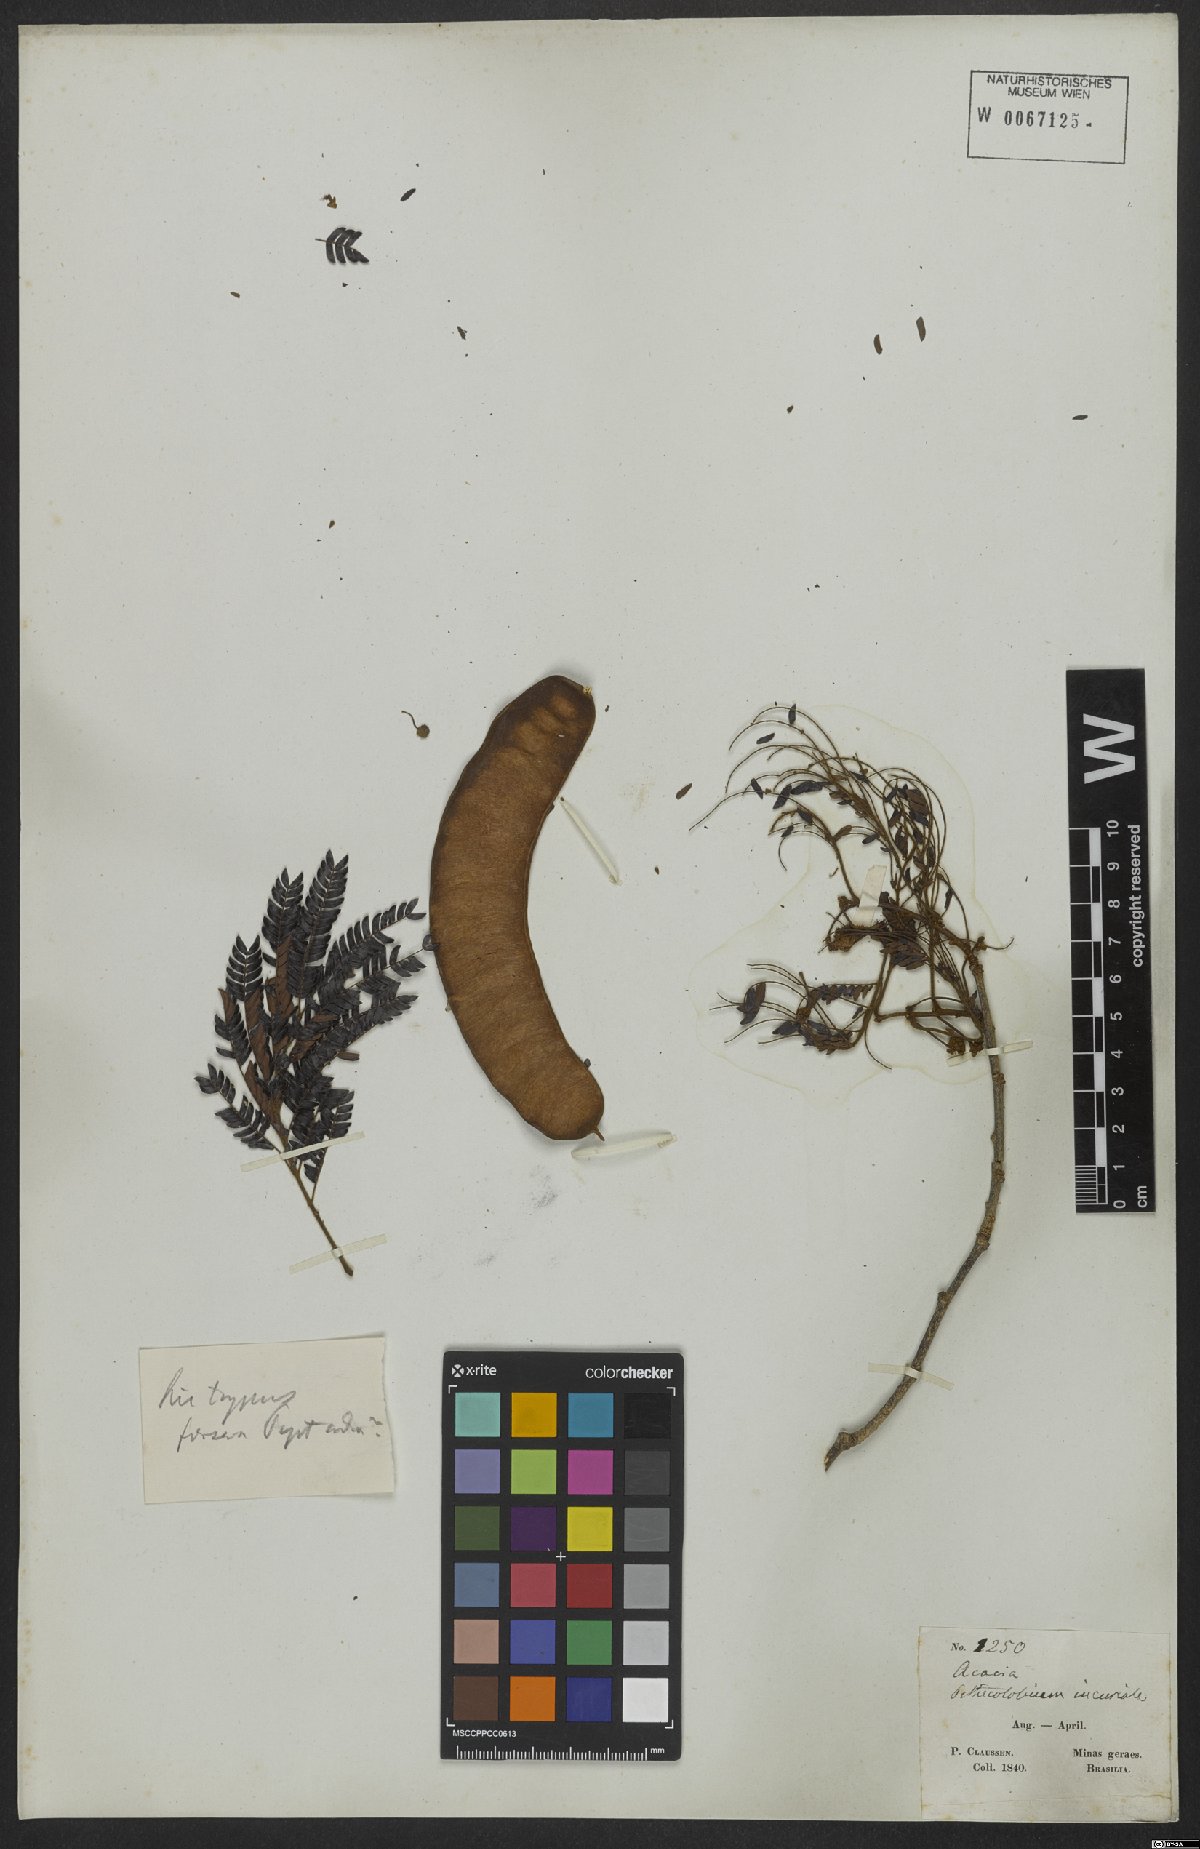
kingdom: Plantae
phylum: Tracheophyta
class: Magnoliopsida
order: Fabales
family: Fabaceae
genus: Leucochloron
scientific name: Leucochloron incuriale
